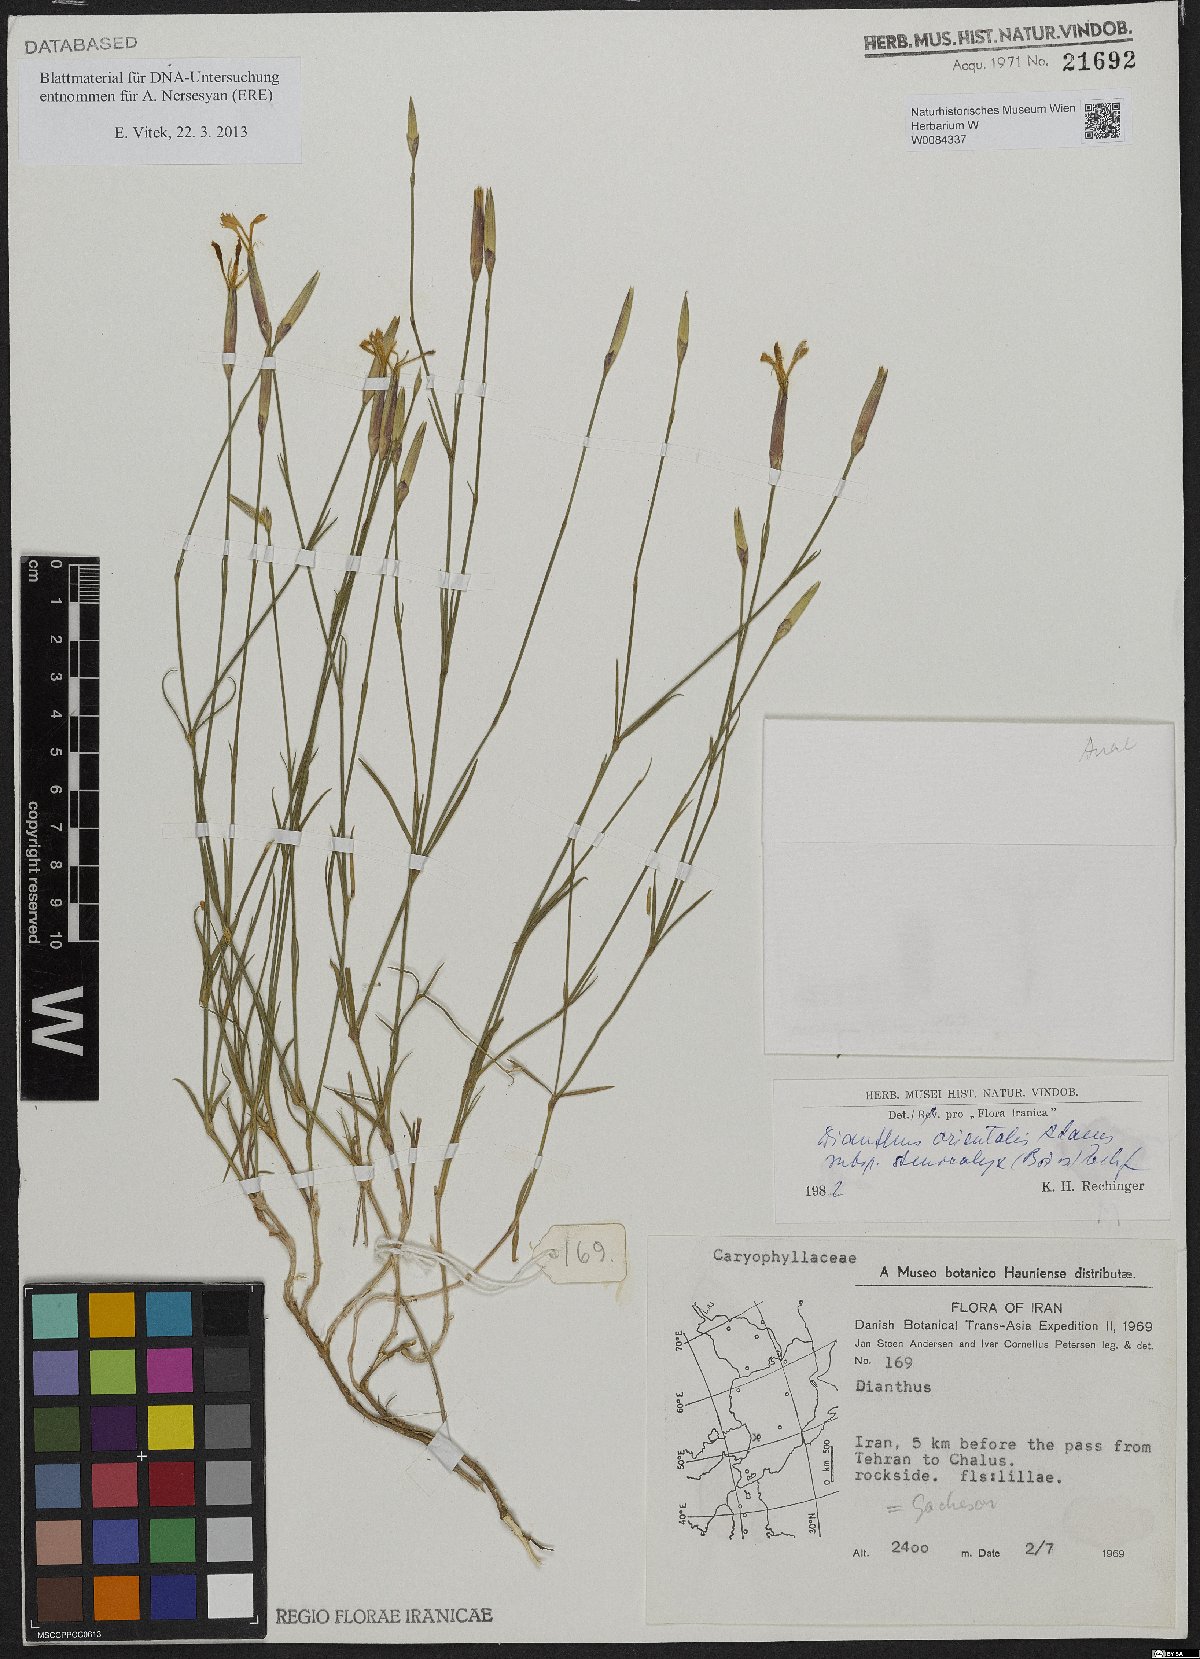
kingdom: Plantae
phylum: Tracheophyta
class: Magnoliopsida
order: Caryophyllales
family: Caryophyllaceae
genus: Dianthus
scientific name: Dianthus orientalis
